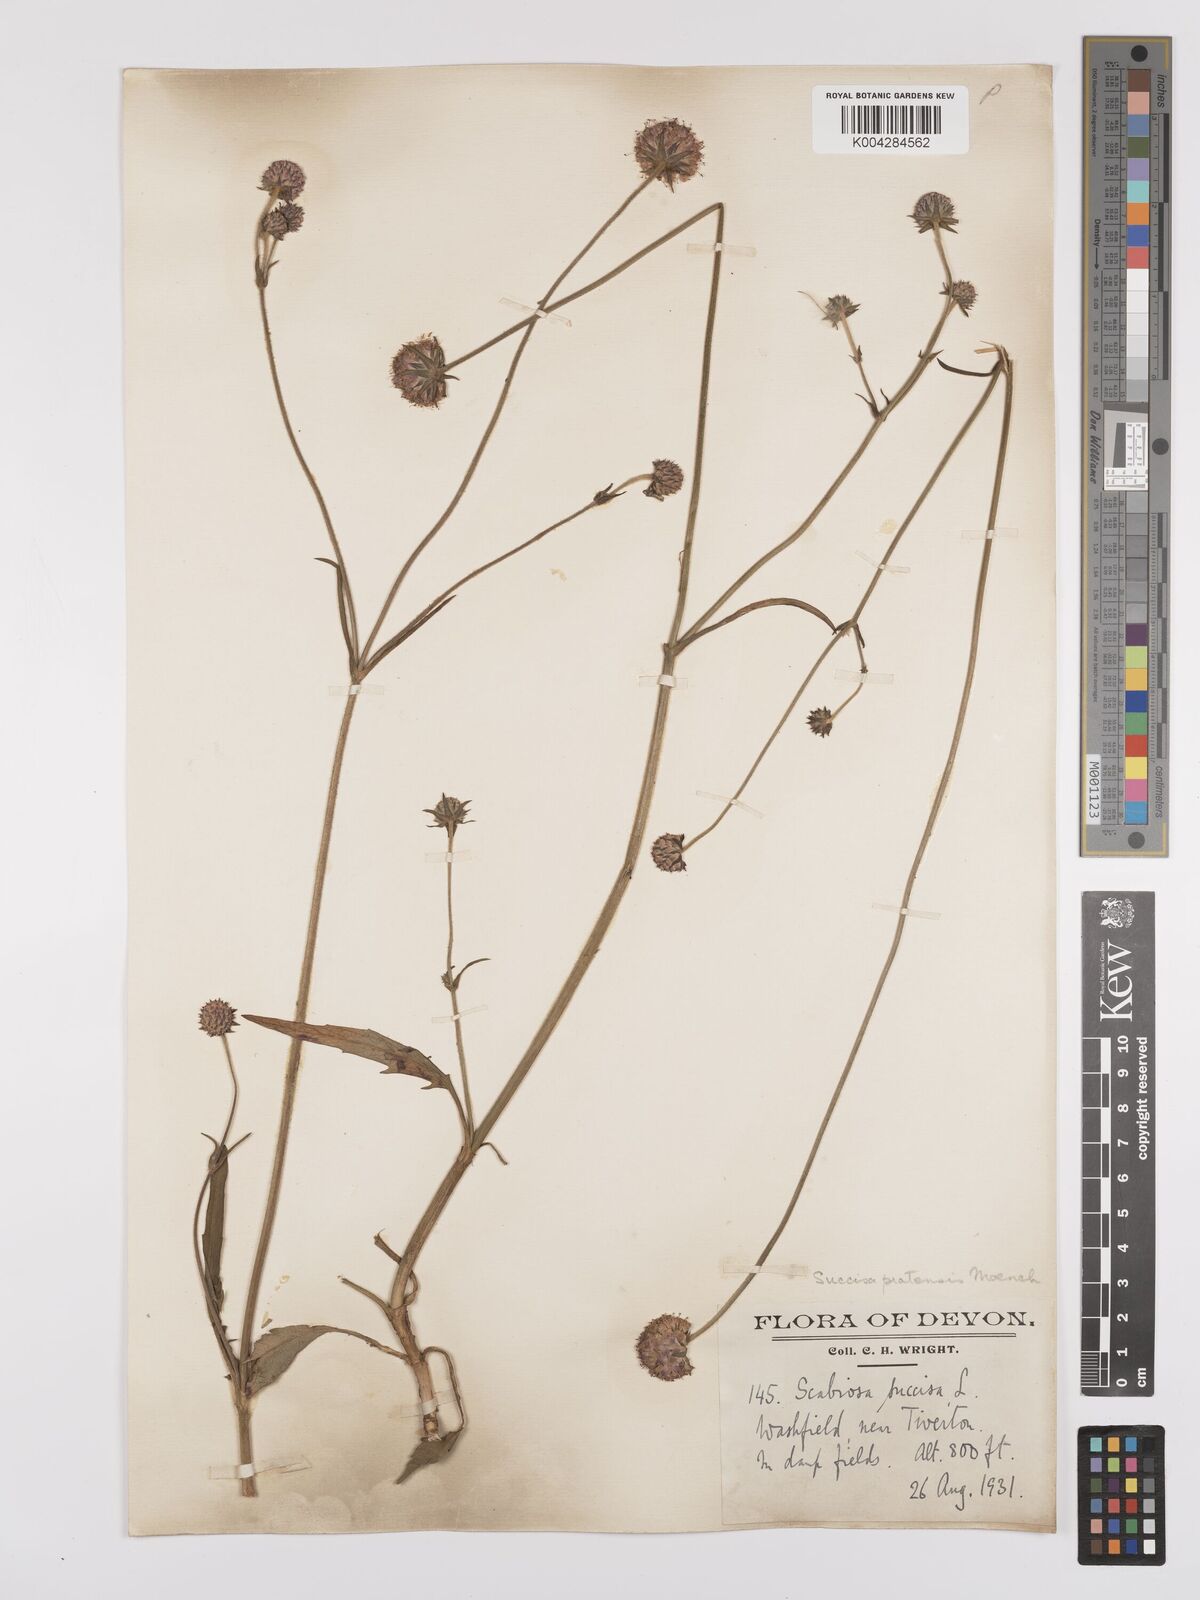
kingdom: Plantae
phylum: Tracheophyta
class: Magnoliopsida
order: Dipsacales
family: Caprifoliaceae
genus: Succisa
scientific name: Succisa pratensis
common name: Devil's-bit
